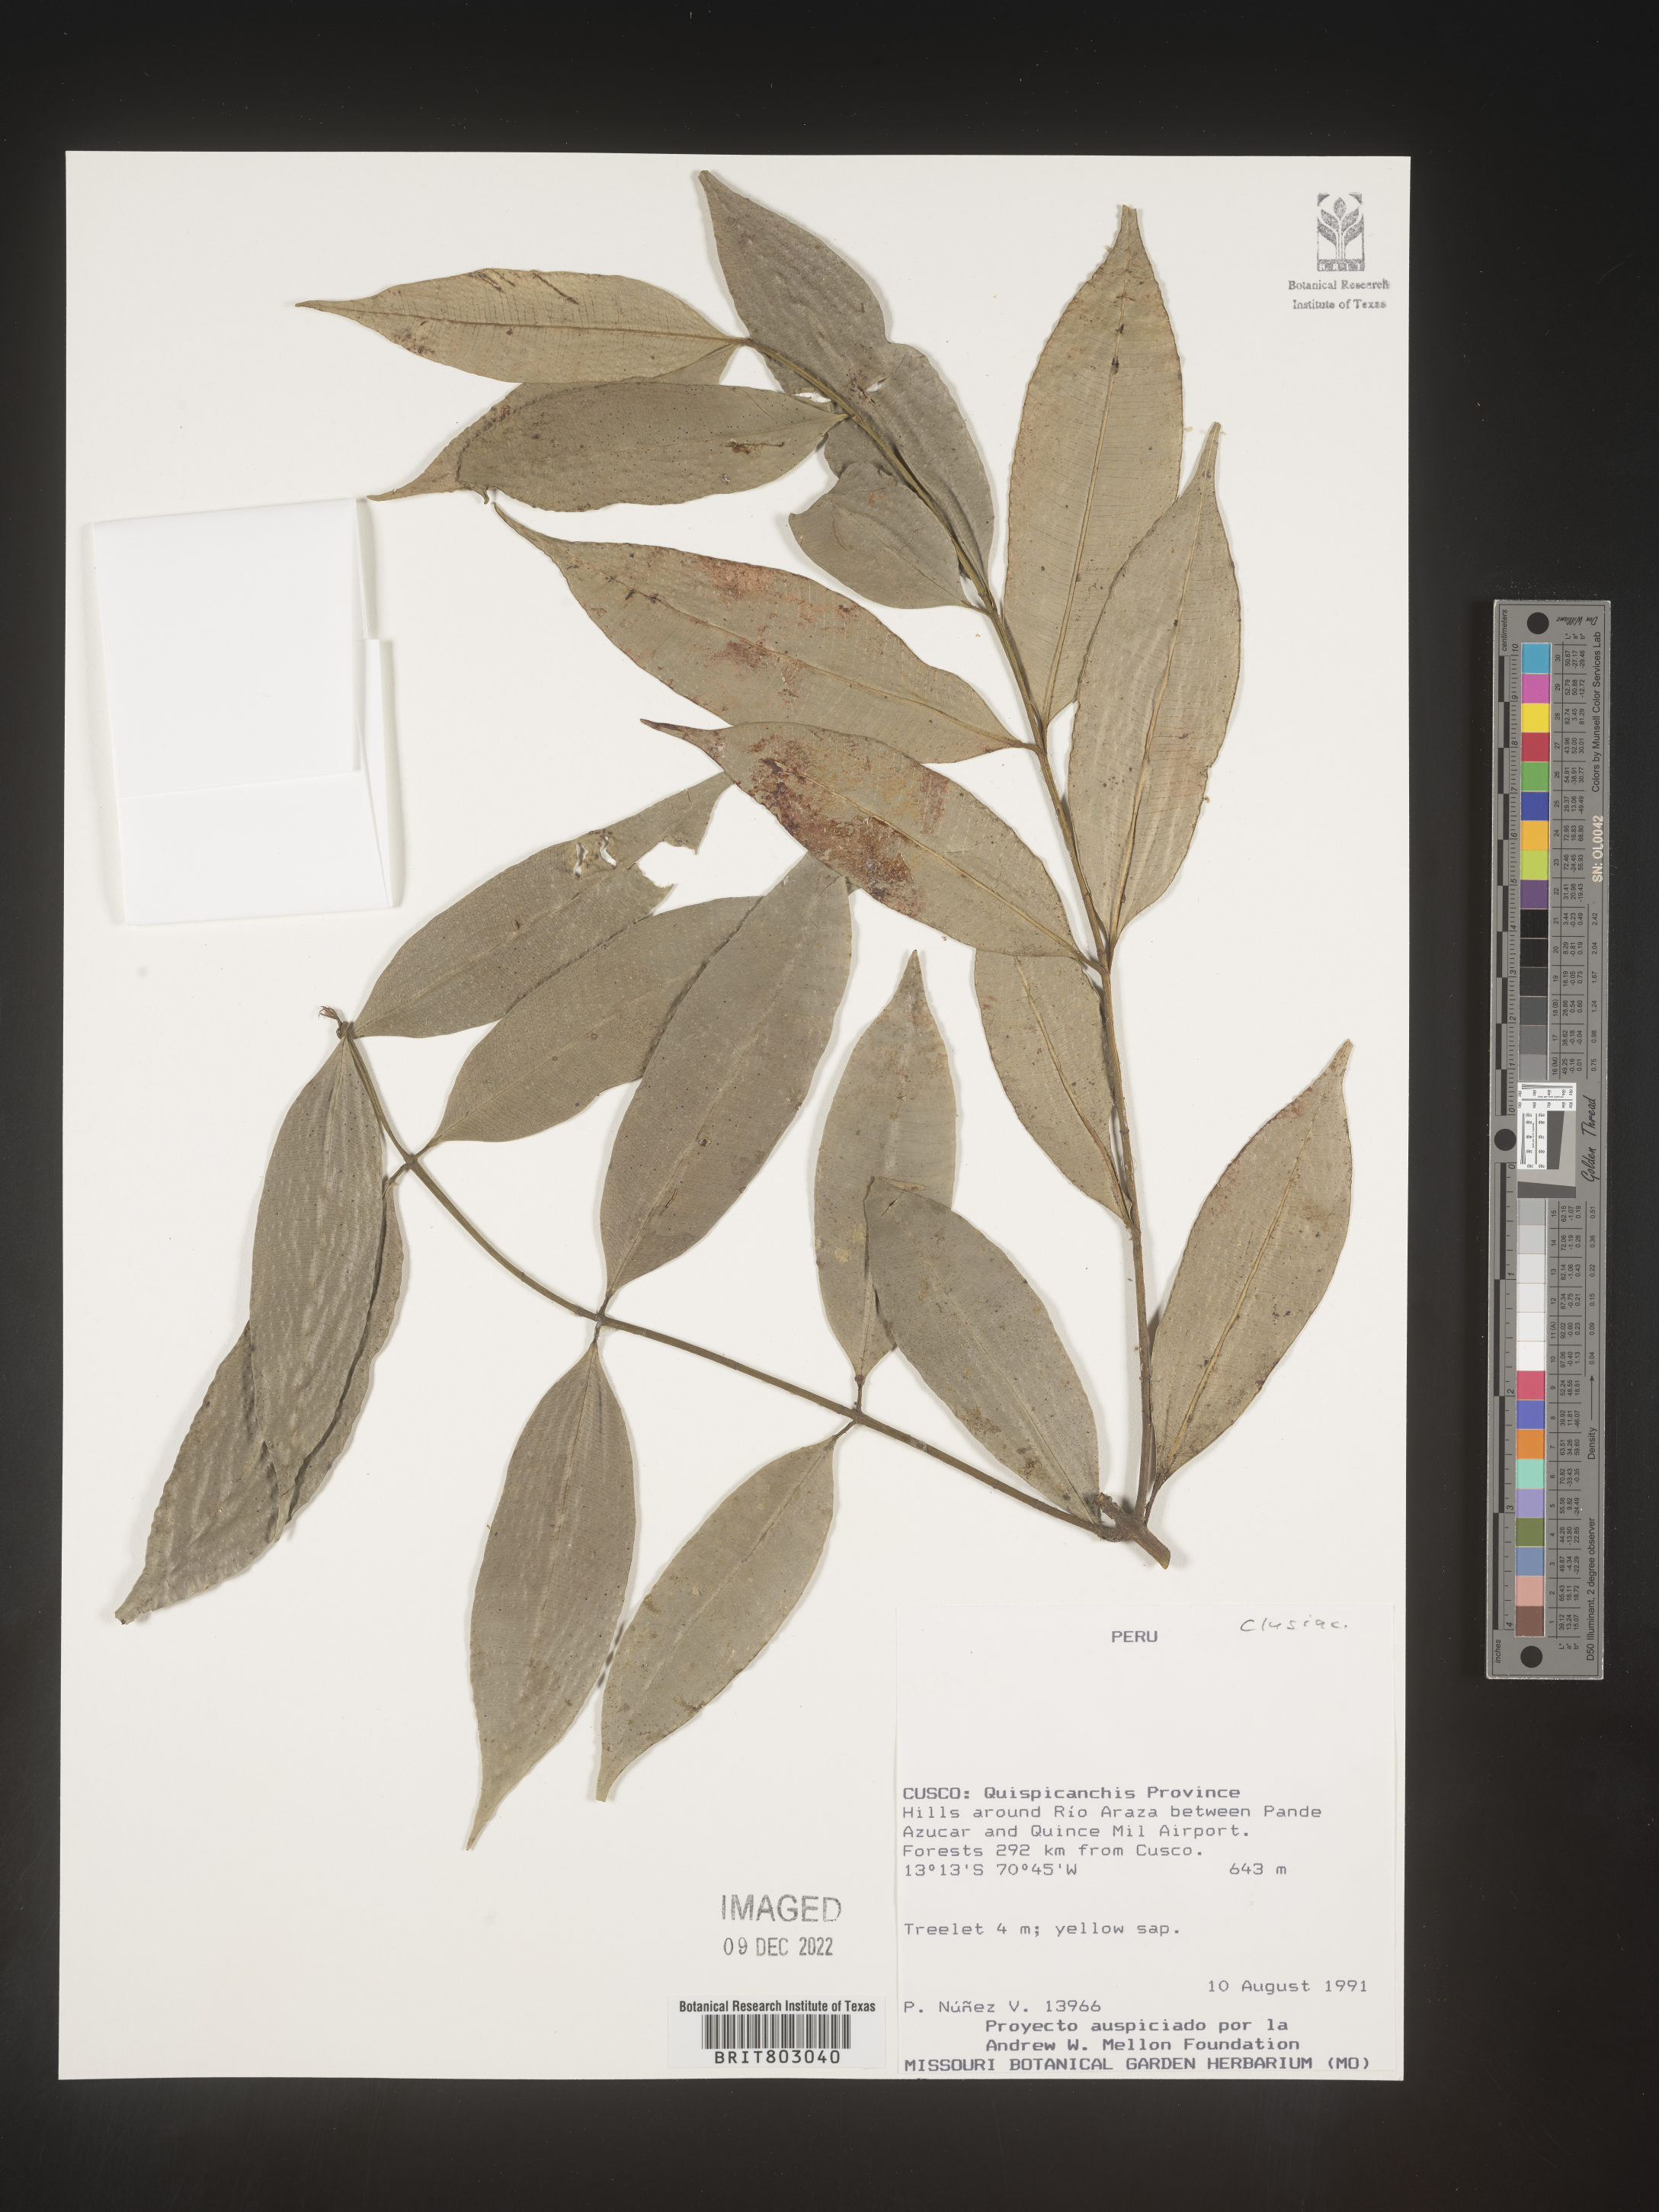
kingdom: Plantae
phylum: Tracheophyta
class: Magnoliopsida
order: Malpighiales
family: Clusiaceae
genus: Symphonia
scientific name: Symphonia
